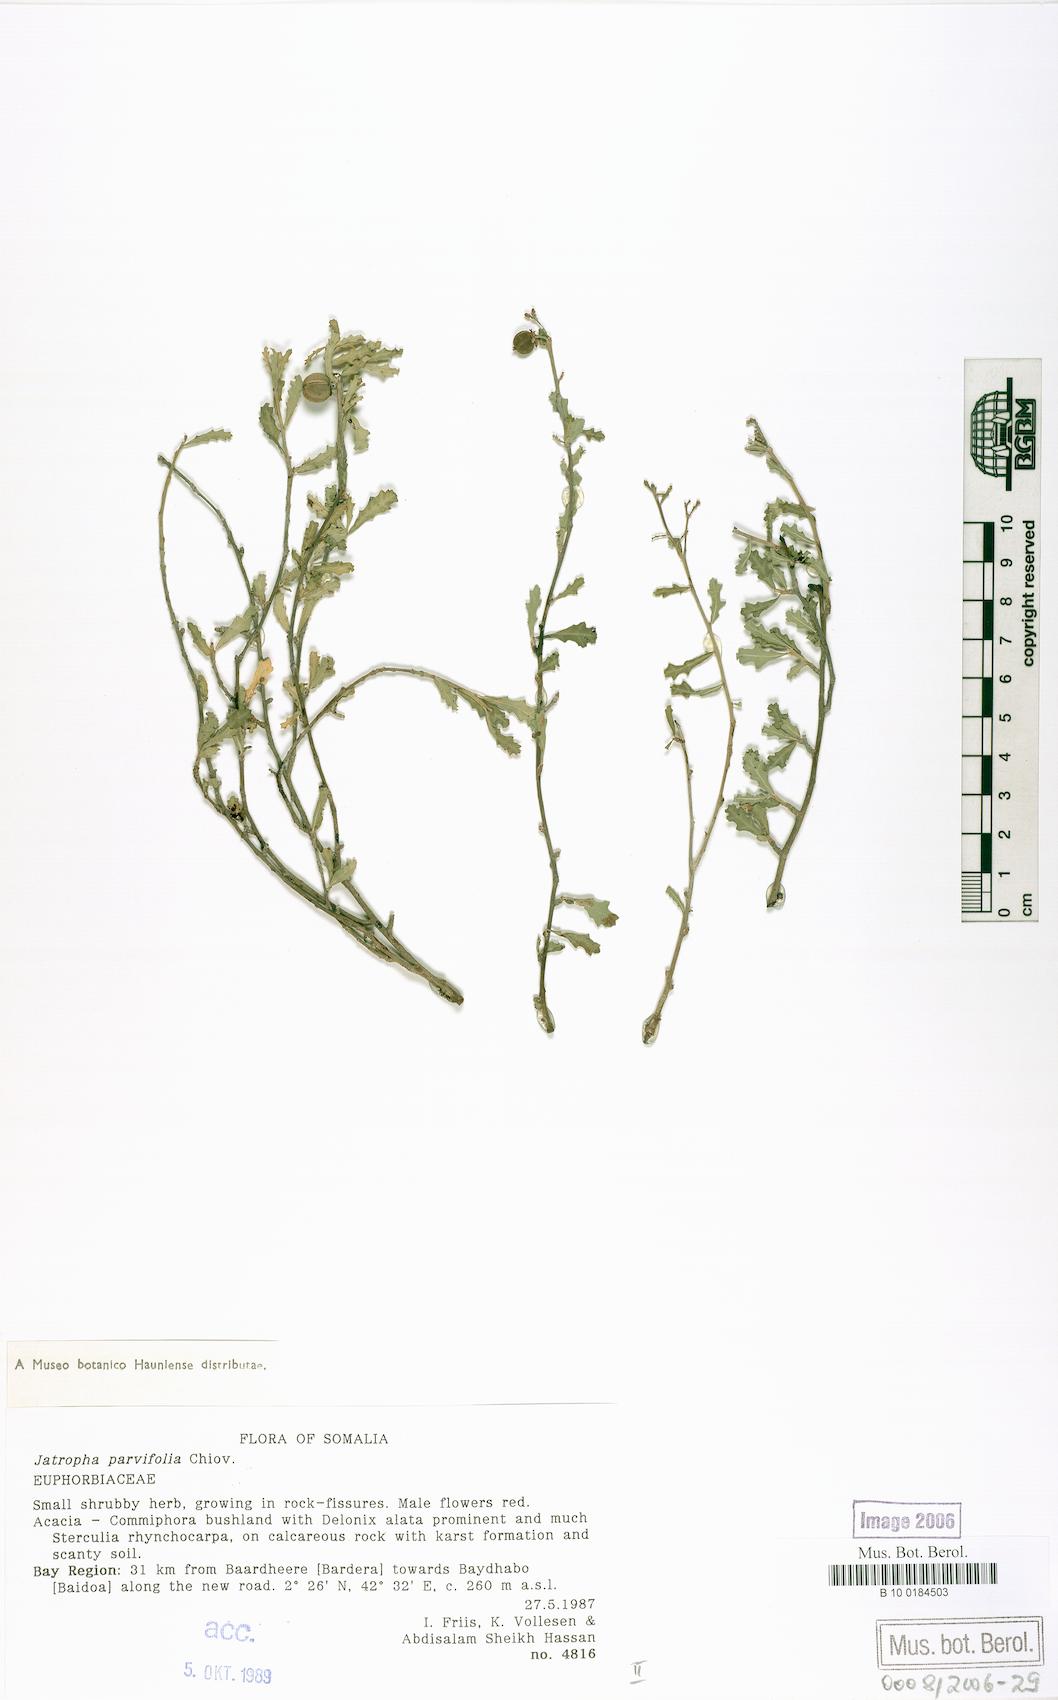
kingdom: Plantae
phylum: Tracheophyta
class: Magnoliopsida
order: Malpighiales
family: Euphorbiaceae
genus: Jatropha
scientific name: Jatropha rivae
